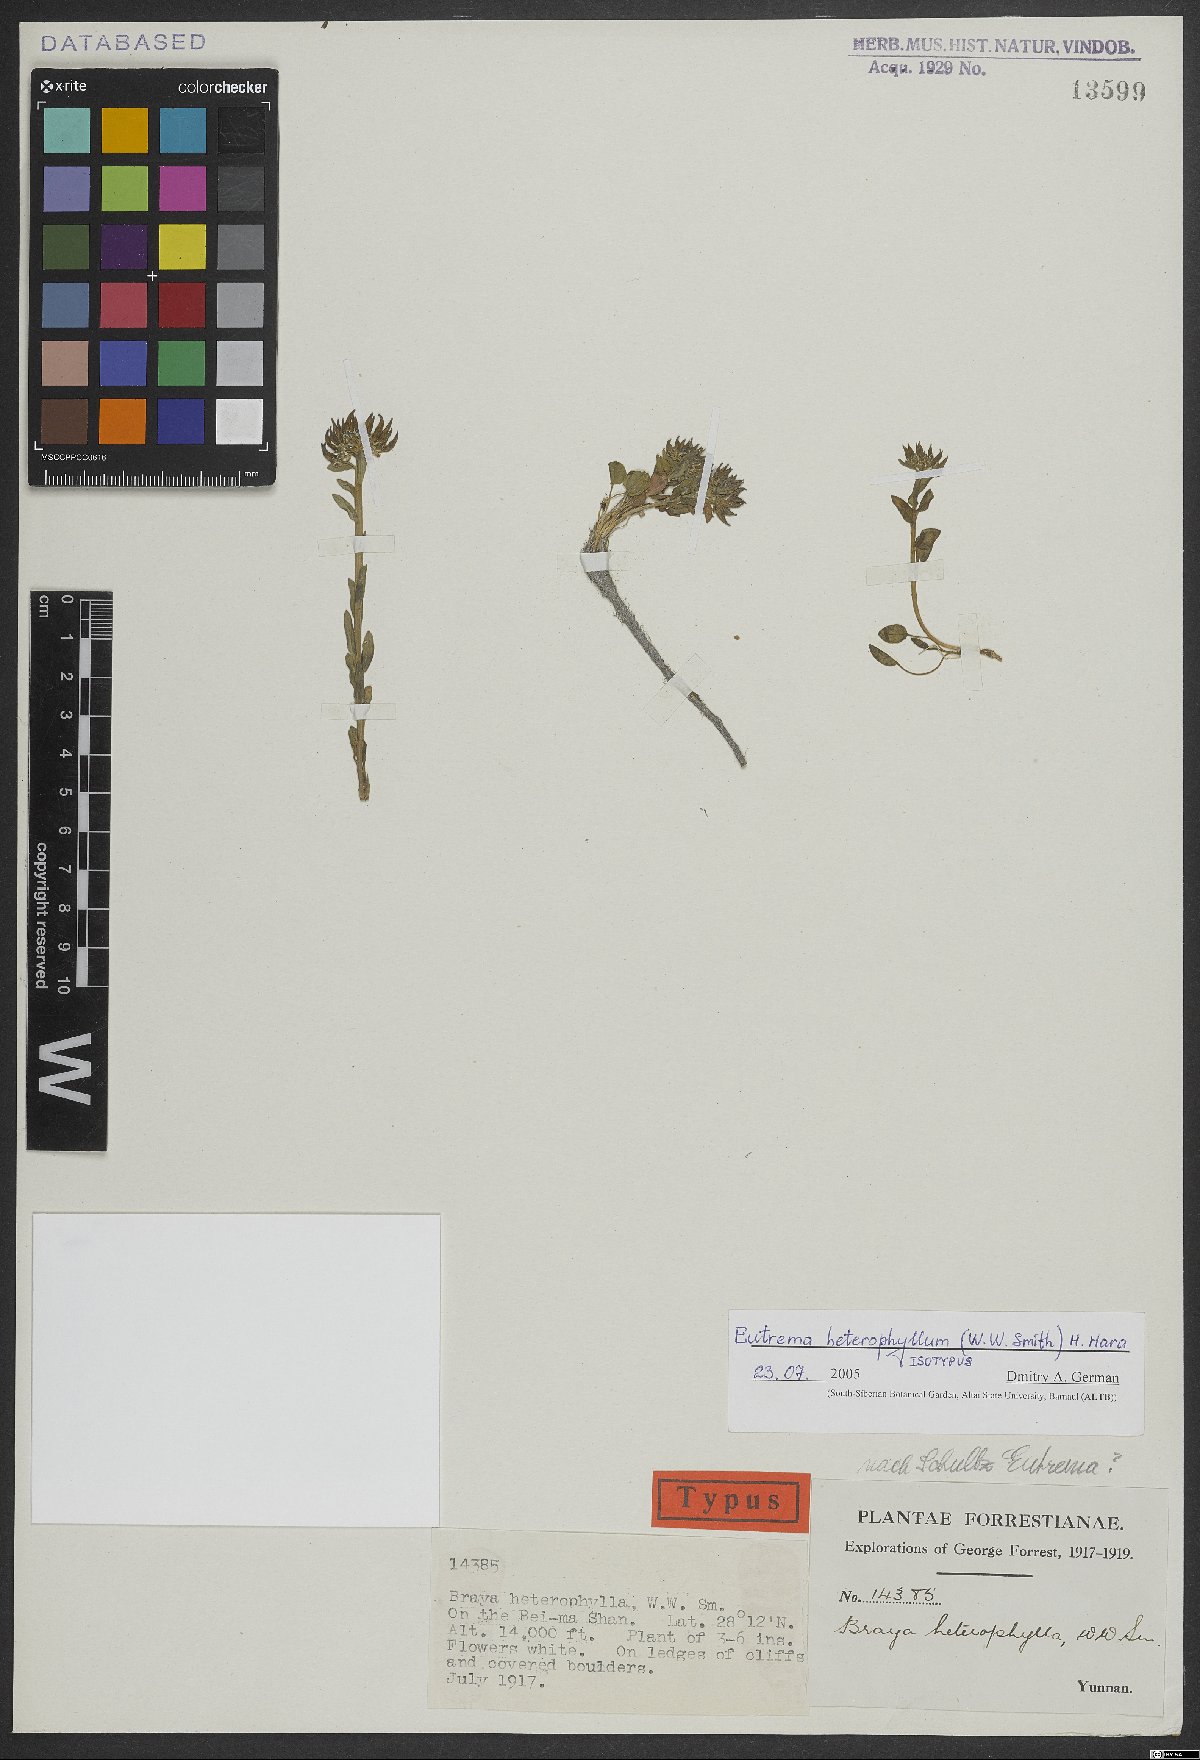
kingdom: Plantae
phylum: Tracheophyta
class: Magnoliopsida
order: Brassicales
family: Brassicaceae
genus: Eutrema
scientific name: Eutrema heterophyllum
